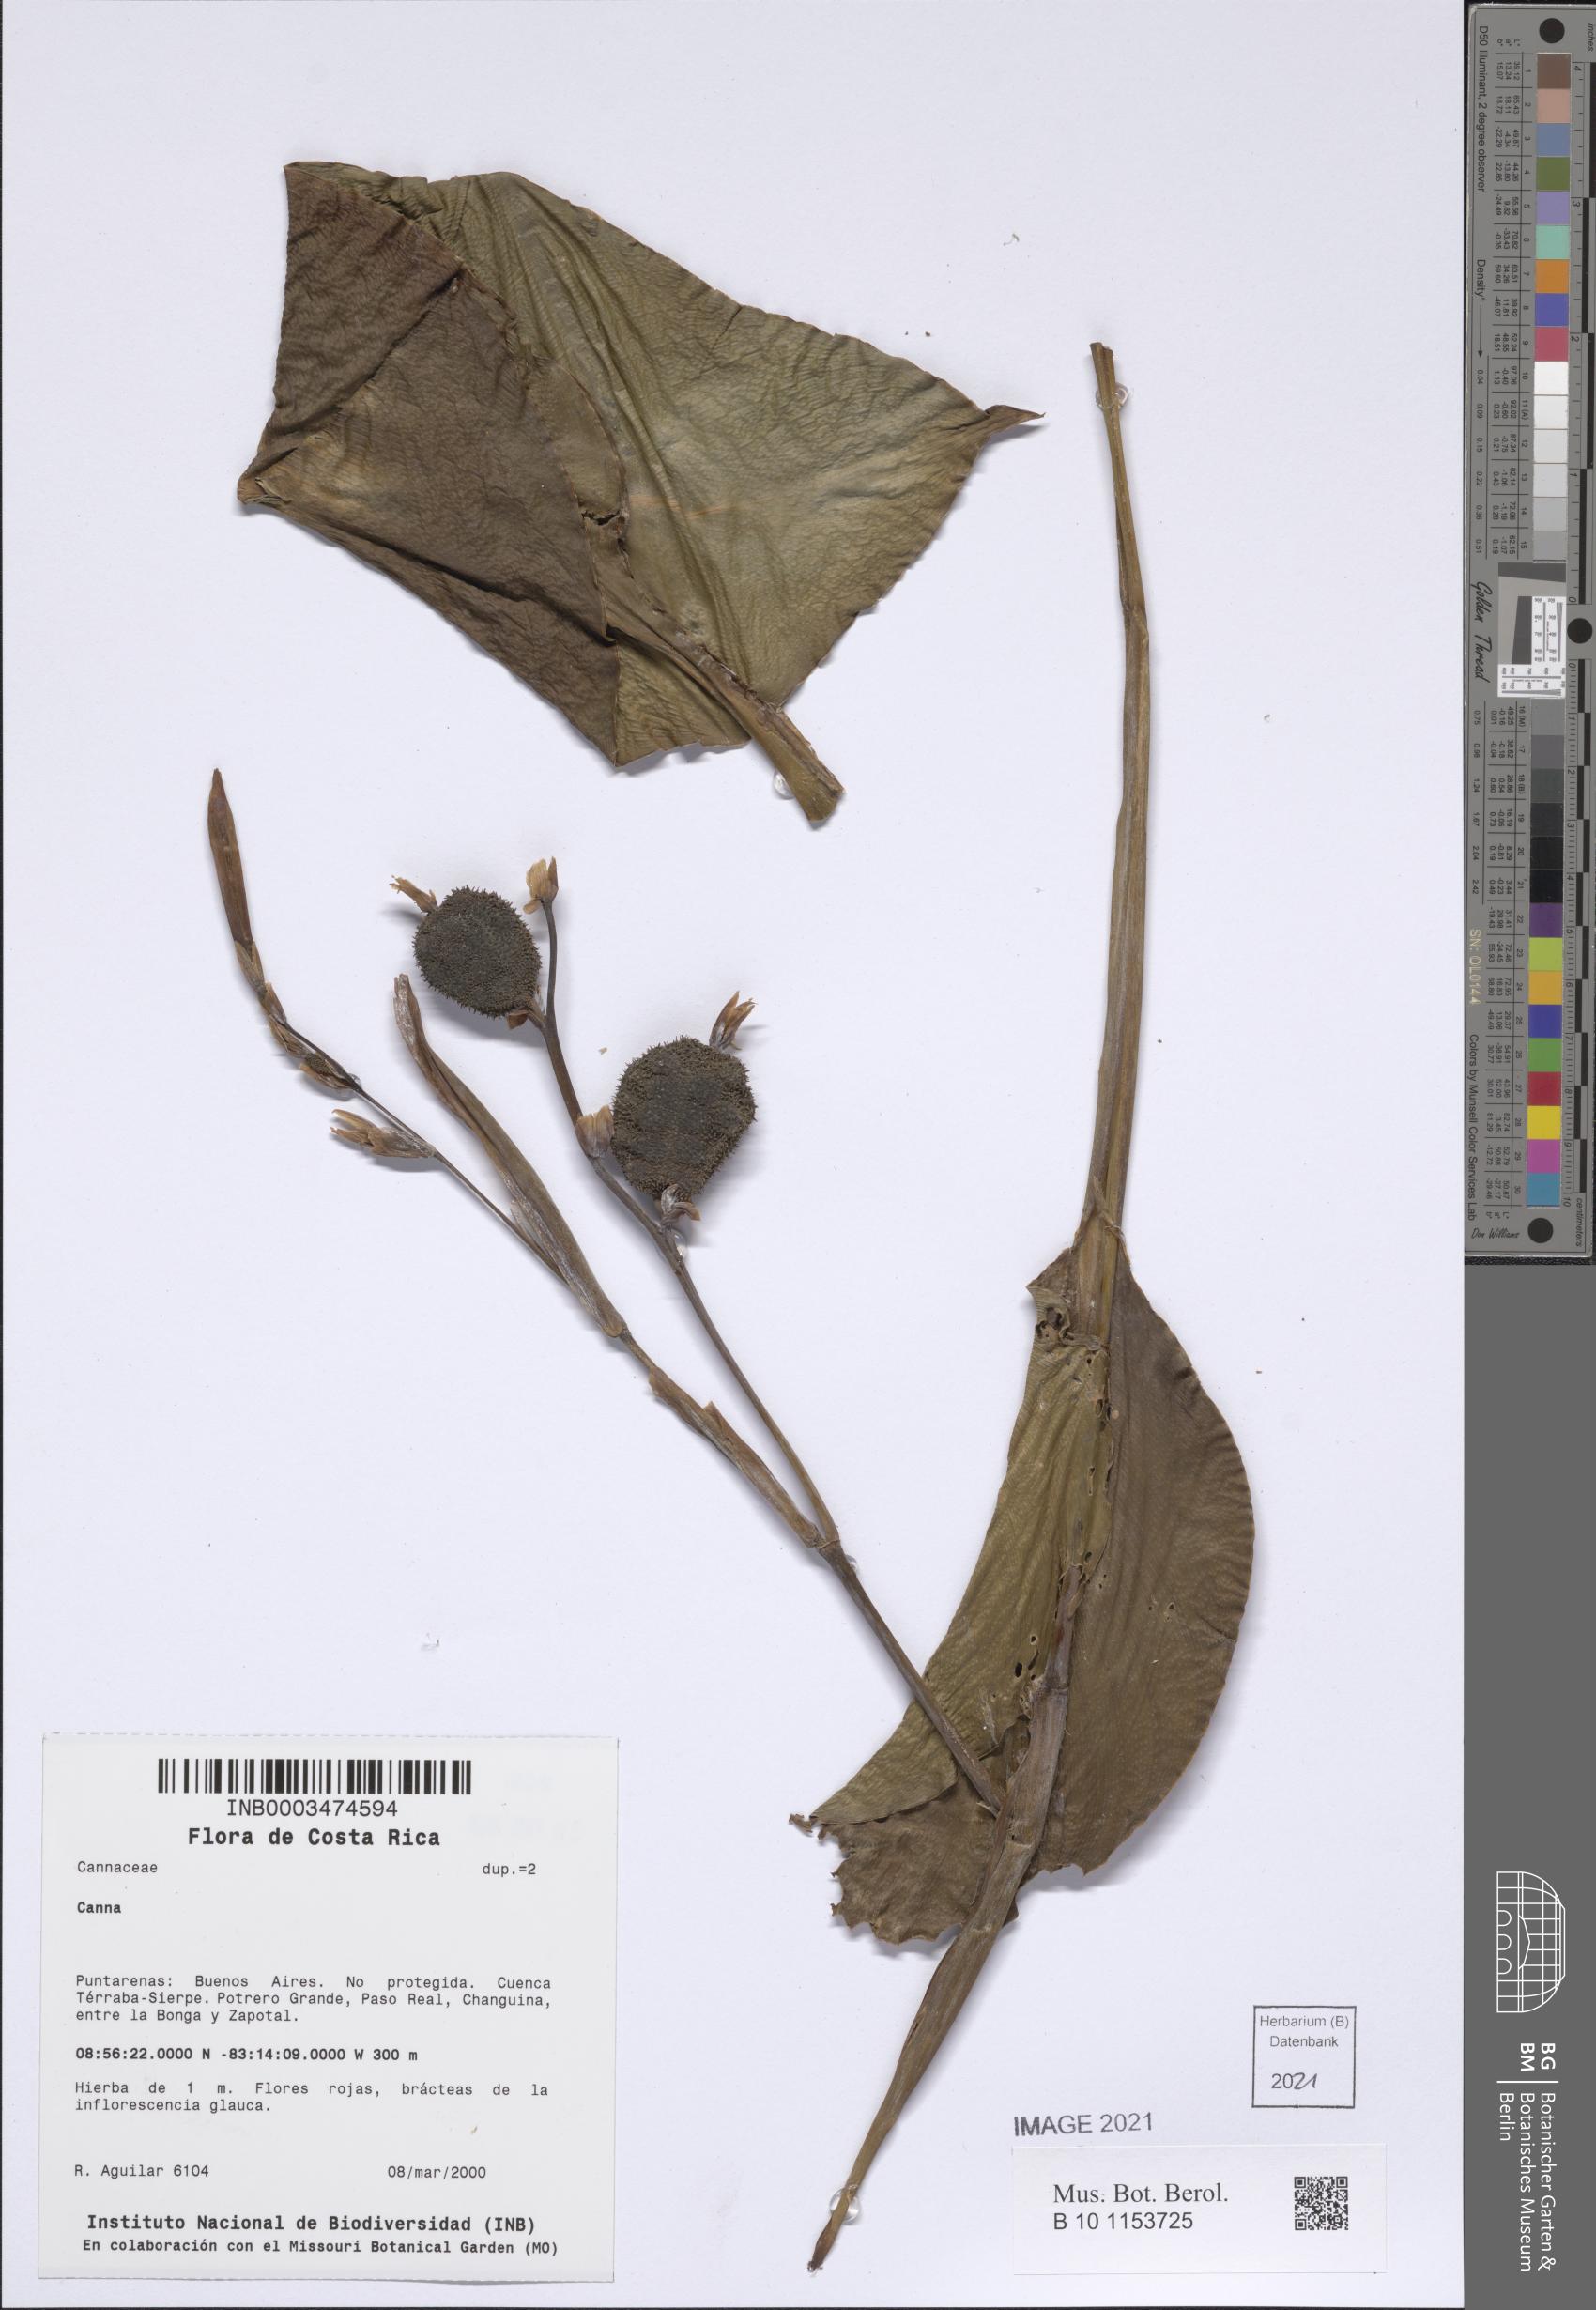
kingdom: Plantae
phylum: Tracheophyta
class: Liliopsida
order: Zingiberales
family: Cannaceae
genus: Canna
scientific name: Canna
